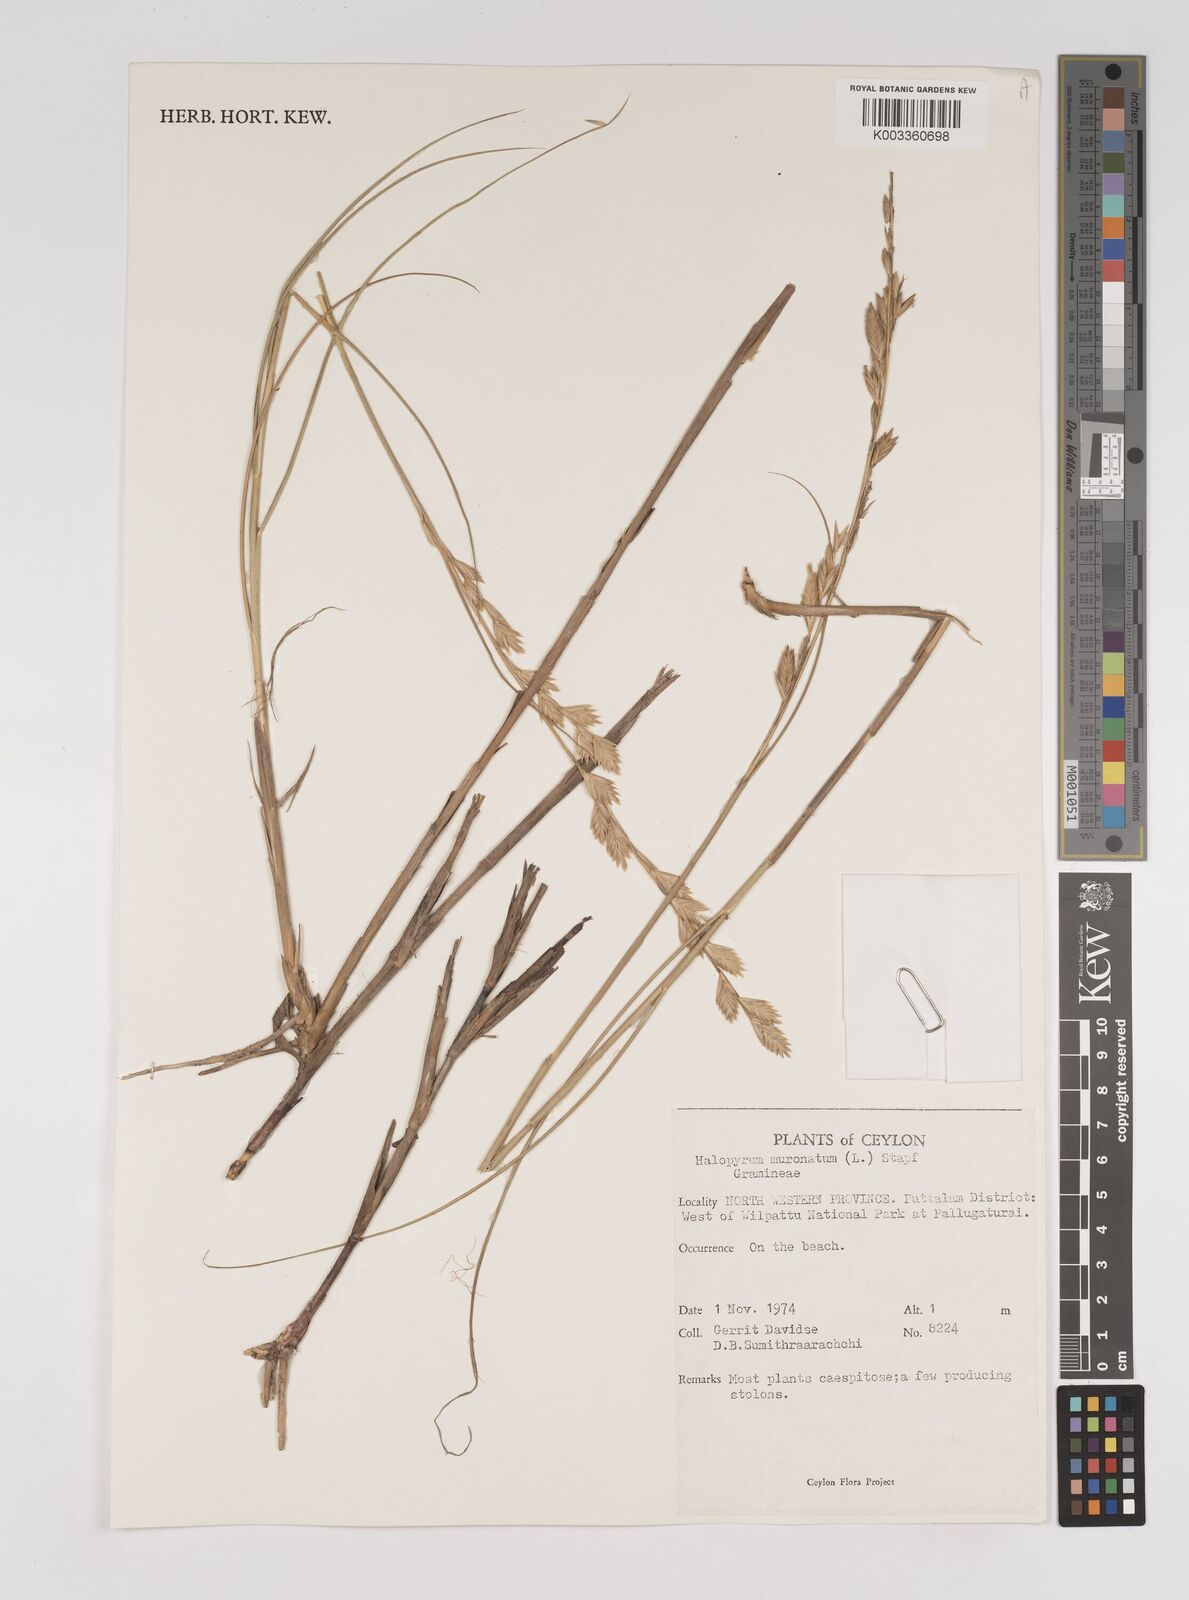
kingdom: Plantae
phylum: Tracheophyta
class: Liliopsida
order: Poales
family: Poaceae
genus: Halopyrum
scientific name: Halopyrum mucronatum
